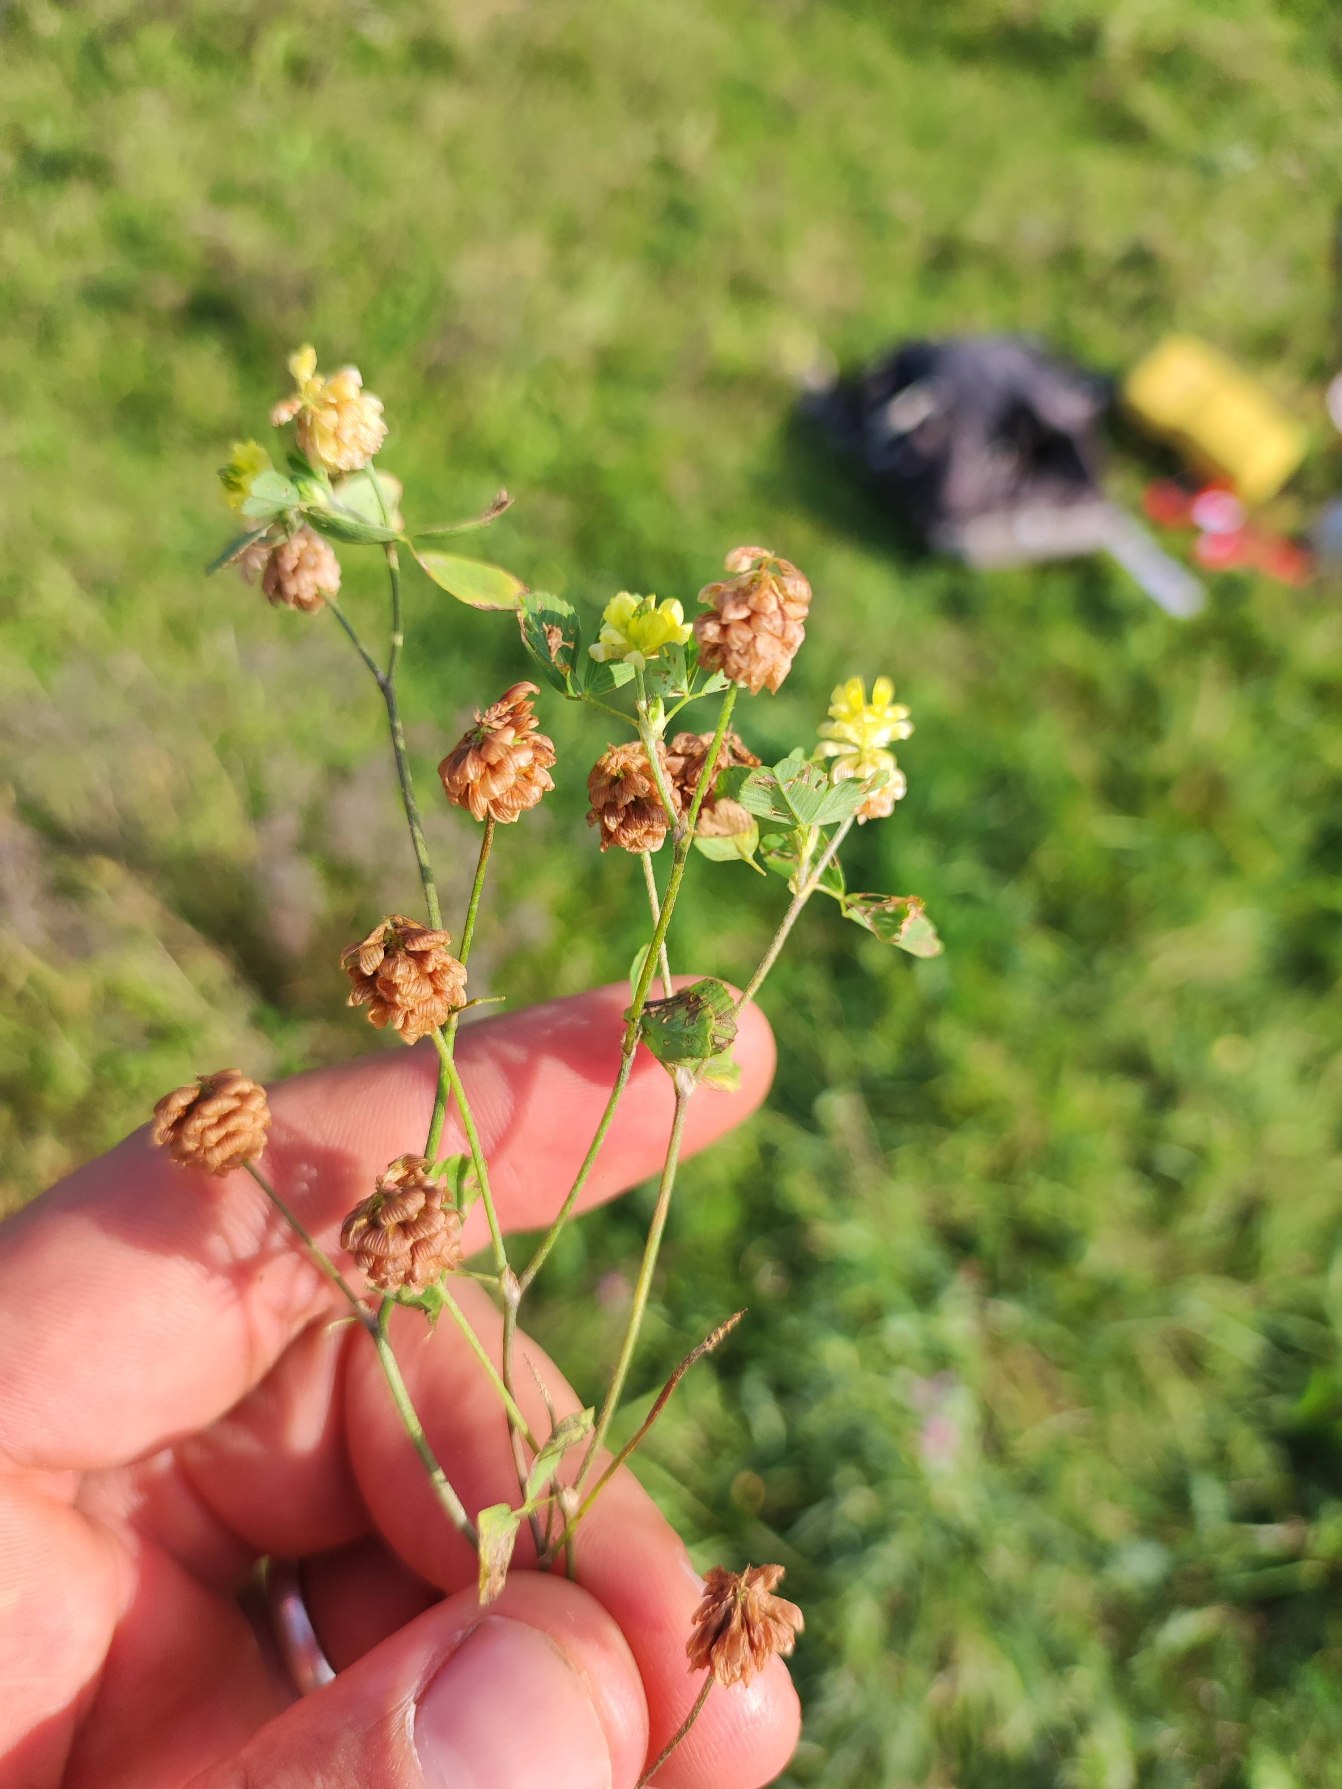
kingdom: Plantae
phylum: Tracheophyta
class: Magnoliopsida
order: Fabales
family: Fabaceae
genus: Trifolium
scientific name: Trifolium campestre
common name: Gul kløver
